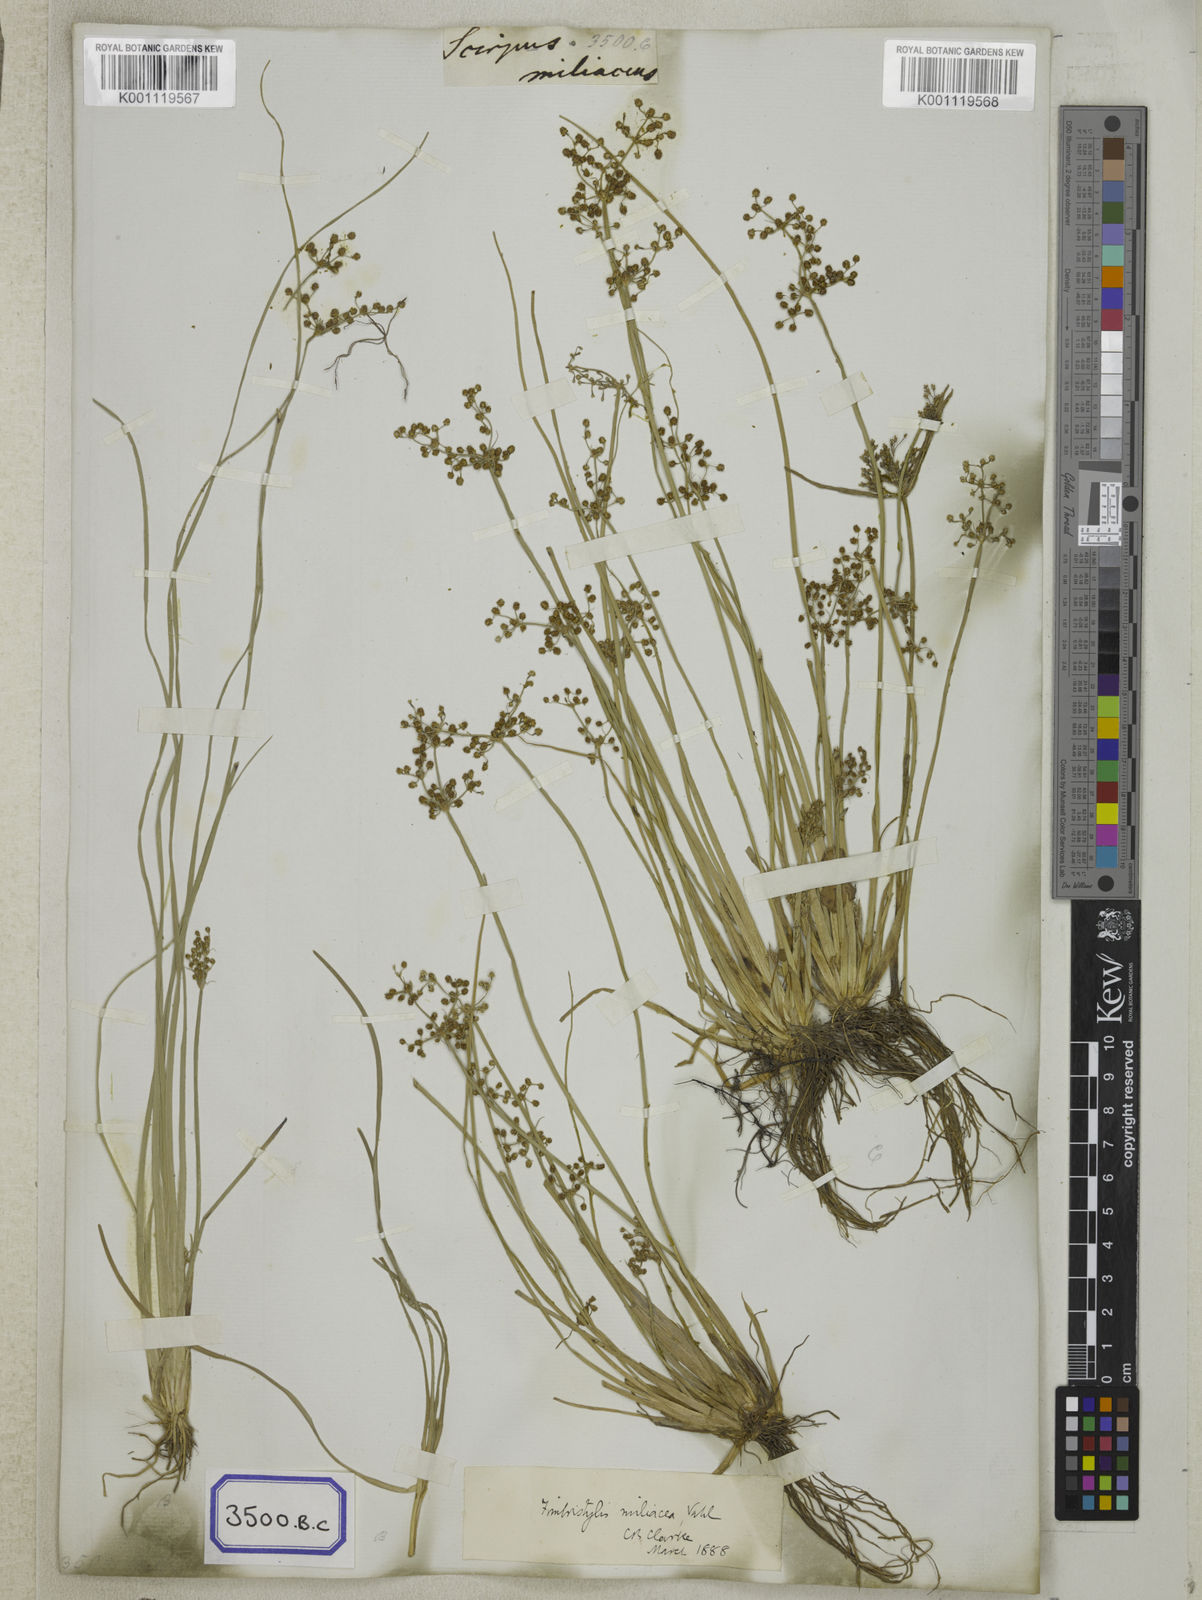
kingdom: Plantae
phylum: Tracheophyta
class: Liliopsida
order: Poales
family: Cyperaceae
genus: Fimbristylis
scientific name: Fimbristylis
